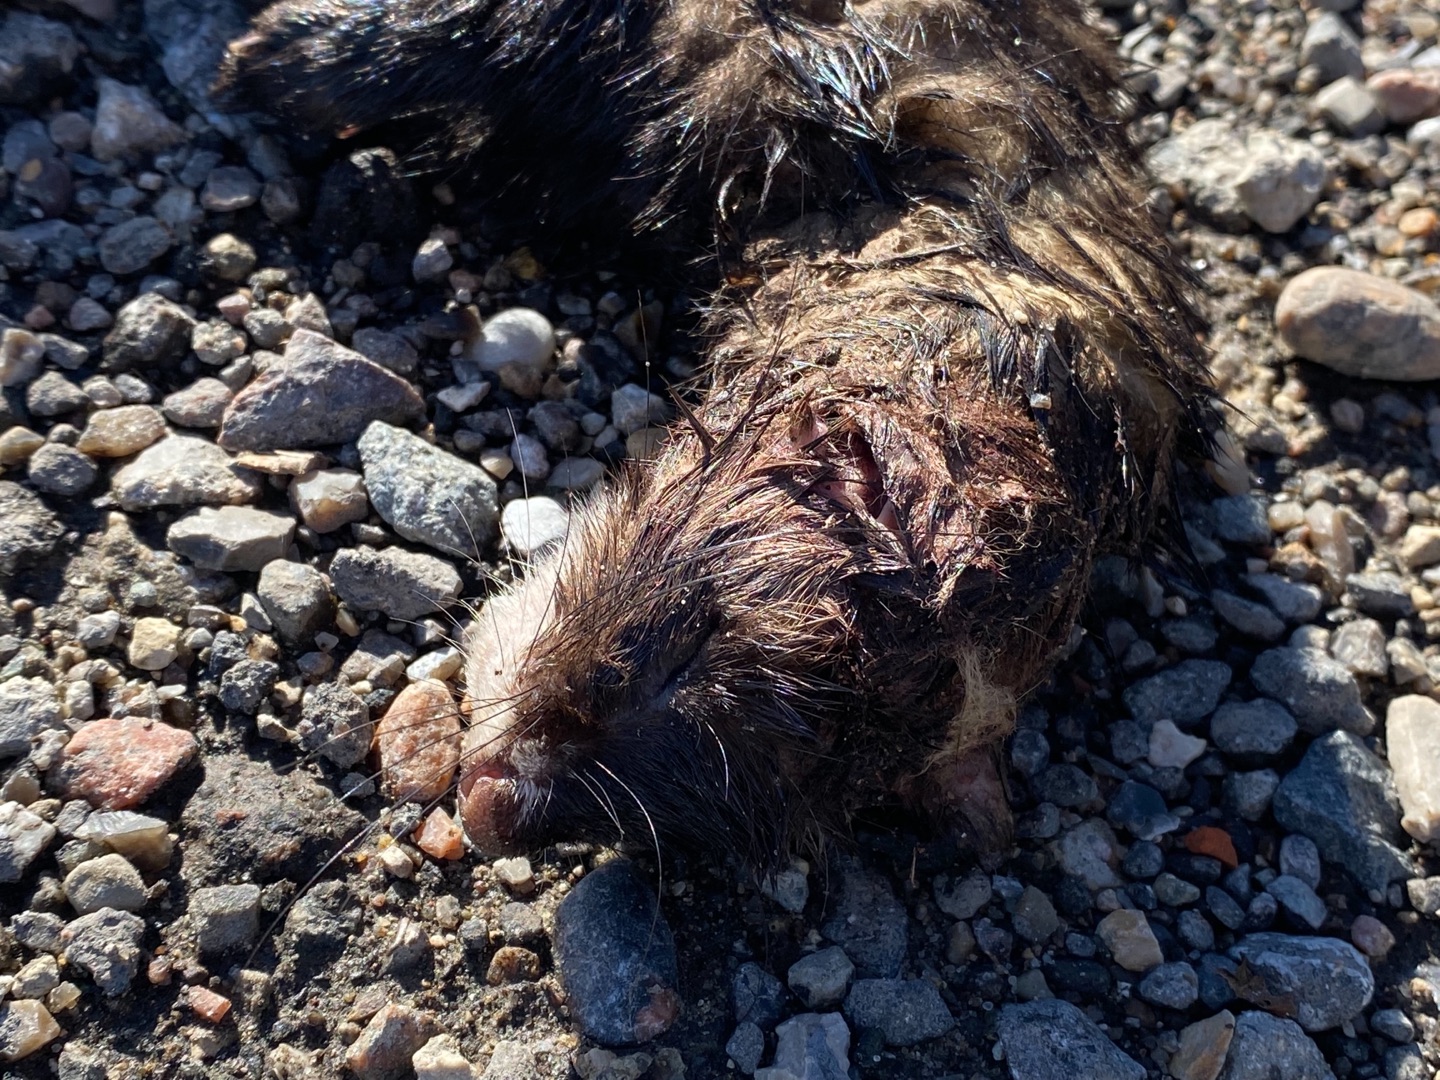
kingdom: Animalia
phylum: Chordata
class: Mammalia
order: Carnivora
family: Mustelidae
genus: Mustela
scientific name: Mustela putorius
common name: Ilder
